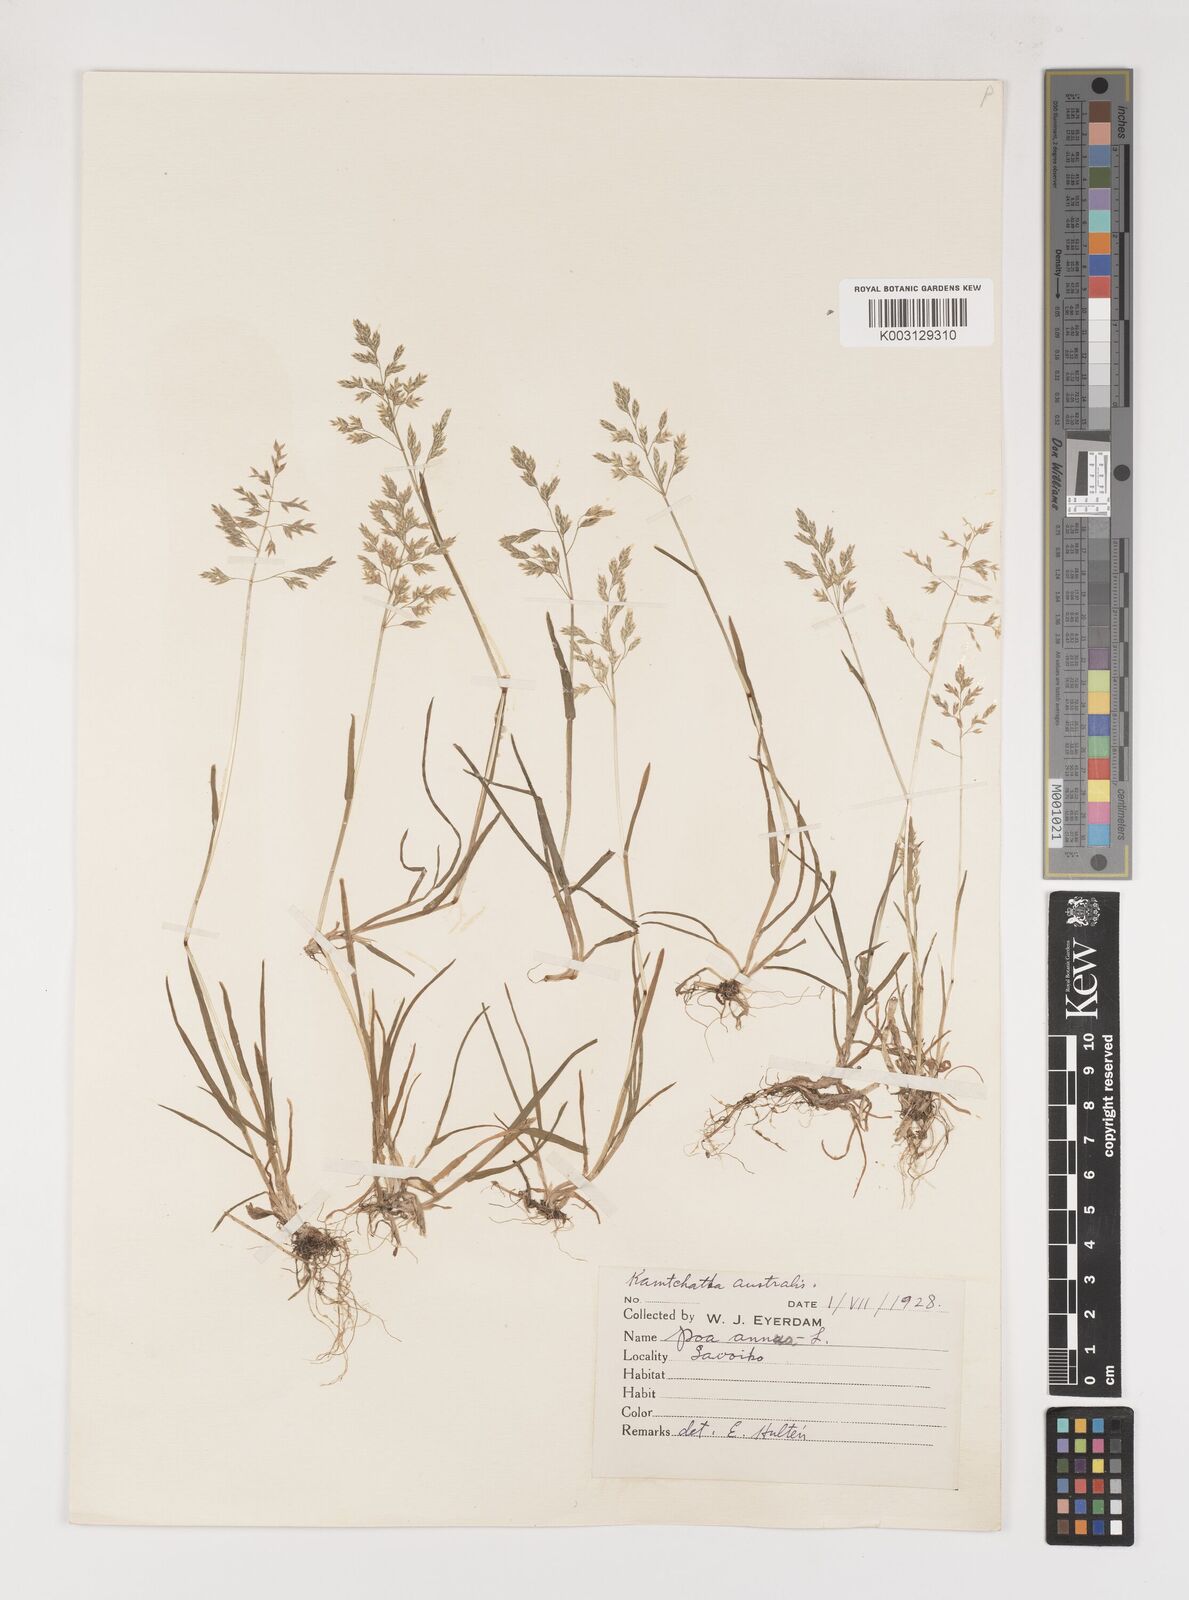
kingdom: Plantae
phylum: Tracheophyta
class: Liliopsida
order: Poales
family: Poaceae
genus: Poa
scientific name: Poa annua
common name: Annual bluegrass
